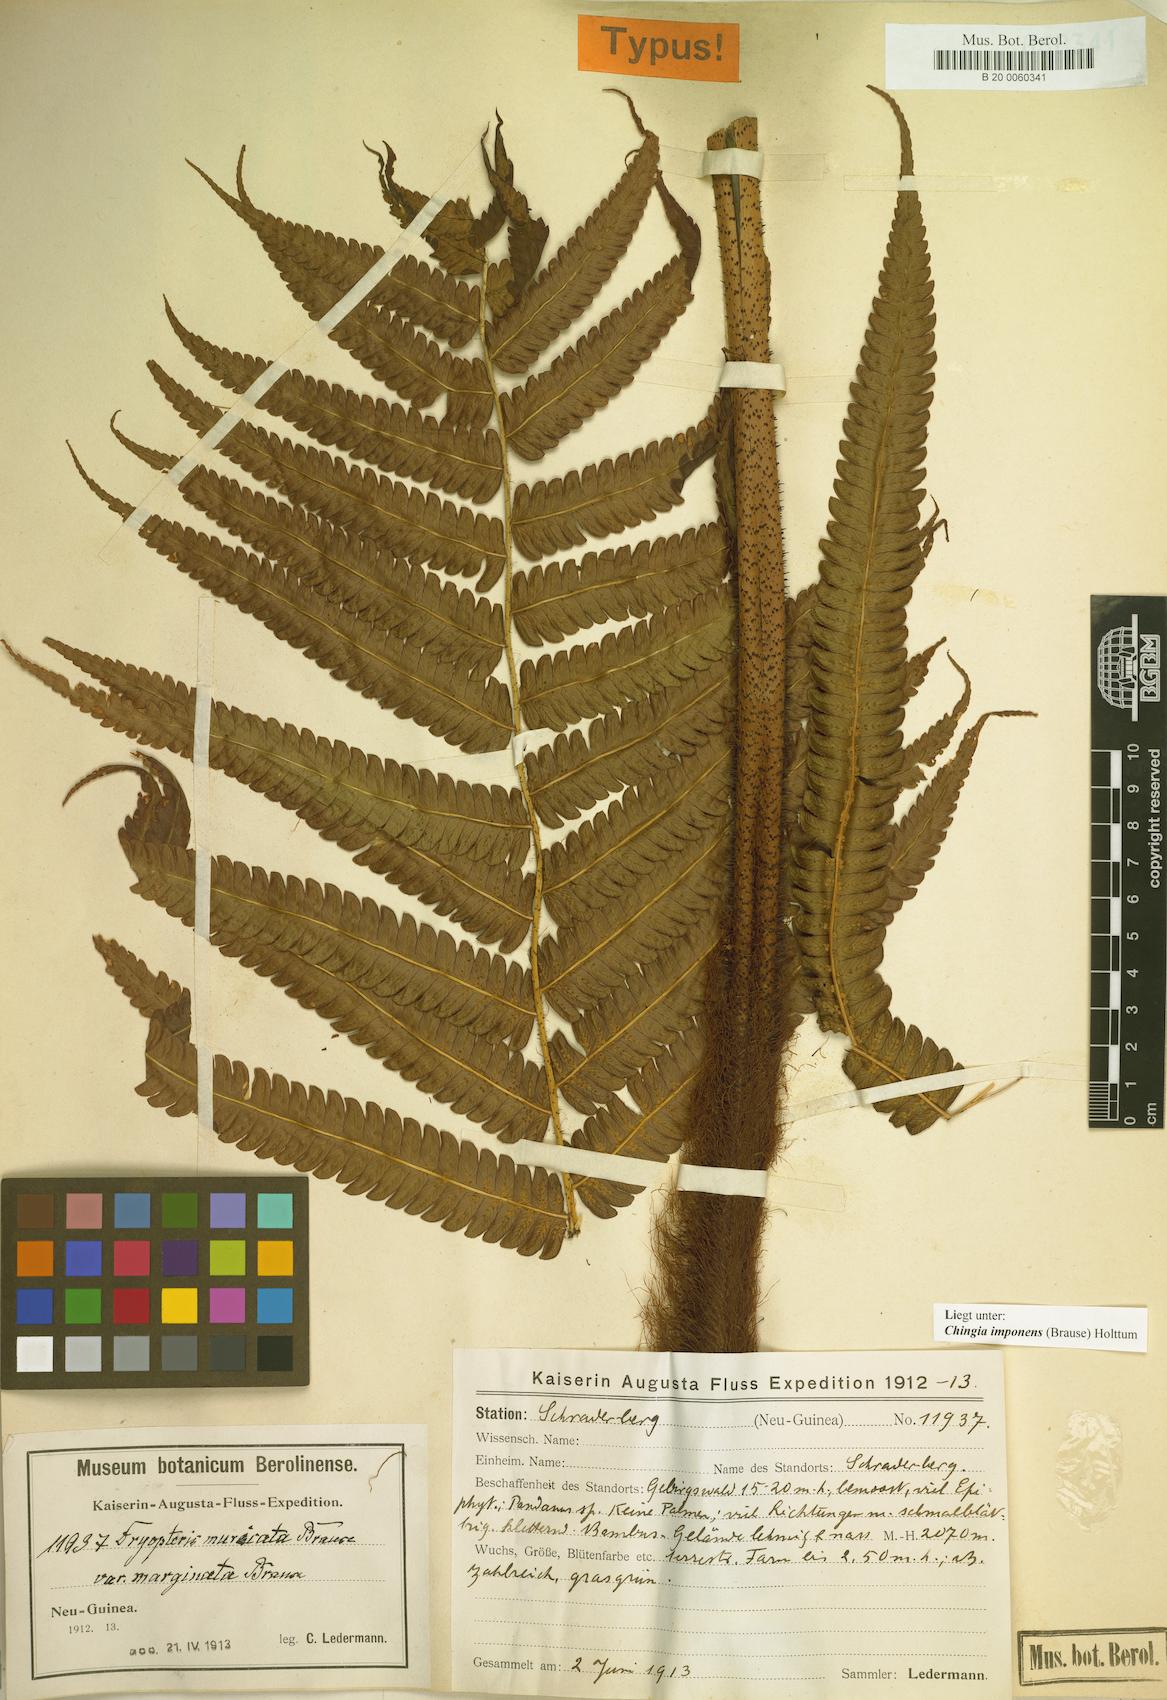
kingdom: Plantae
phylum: Tracheophyta
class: Polypodiopsida
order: Polypodiales
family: Thelypteridaceae
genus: Chingia
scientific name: Chingia imponens
